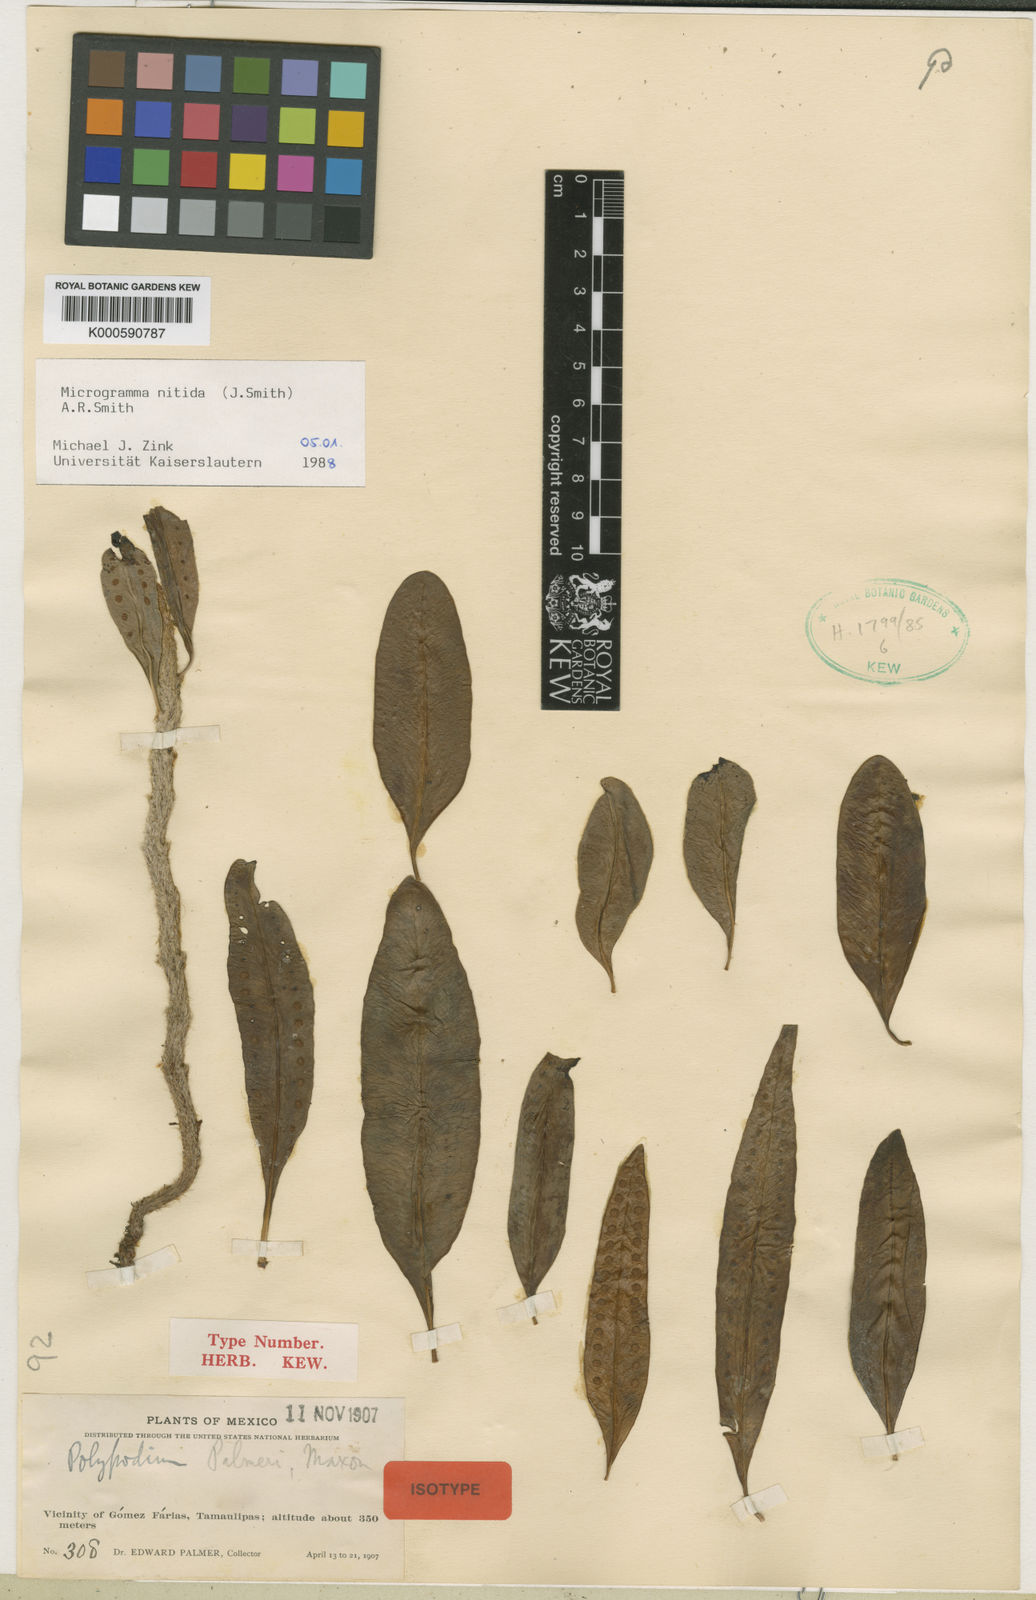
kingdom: Plantae
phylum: Tracheophyta
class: Polypodiopsida
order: Polypodiales
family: Polypodiaceae
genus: Microgramma
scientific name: Microgramma
